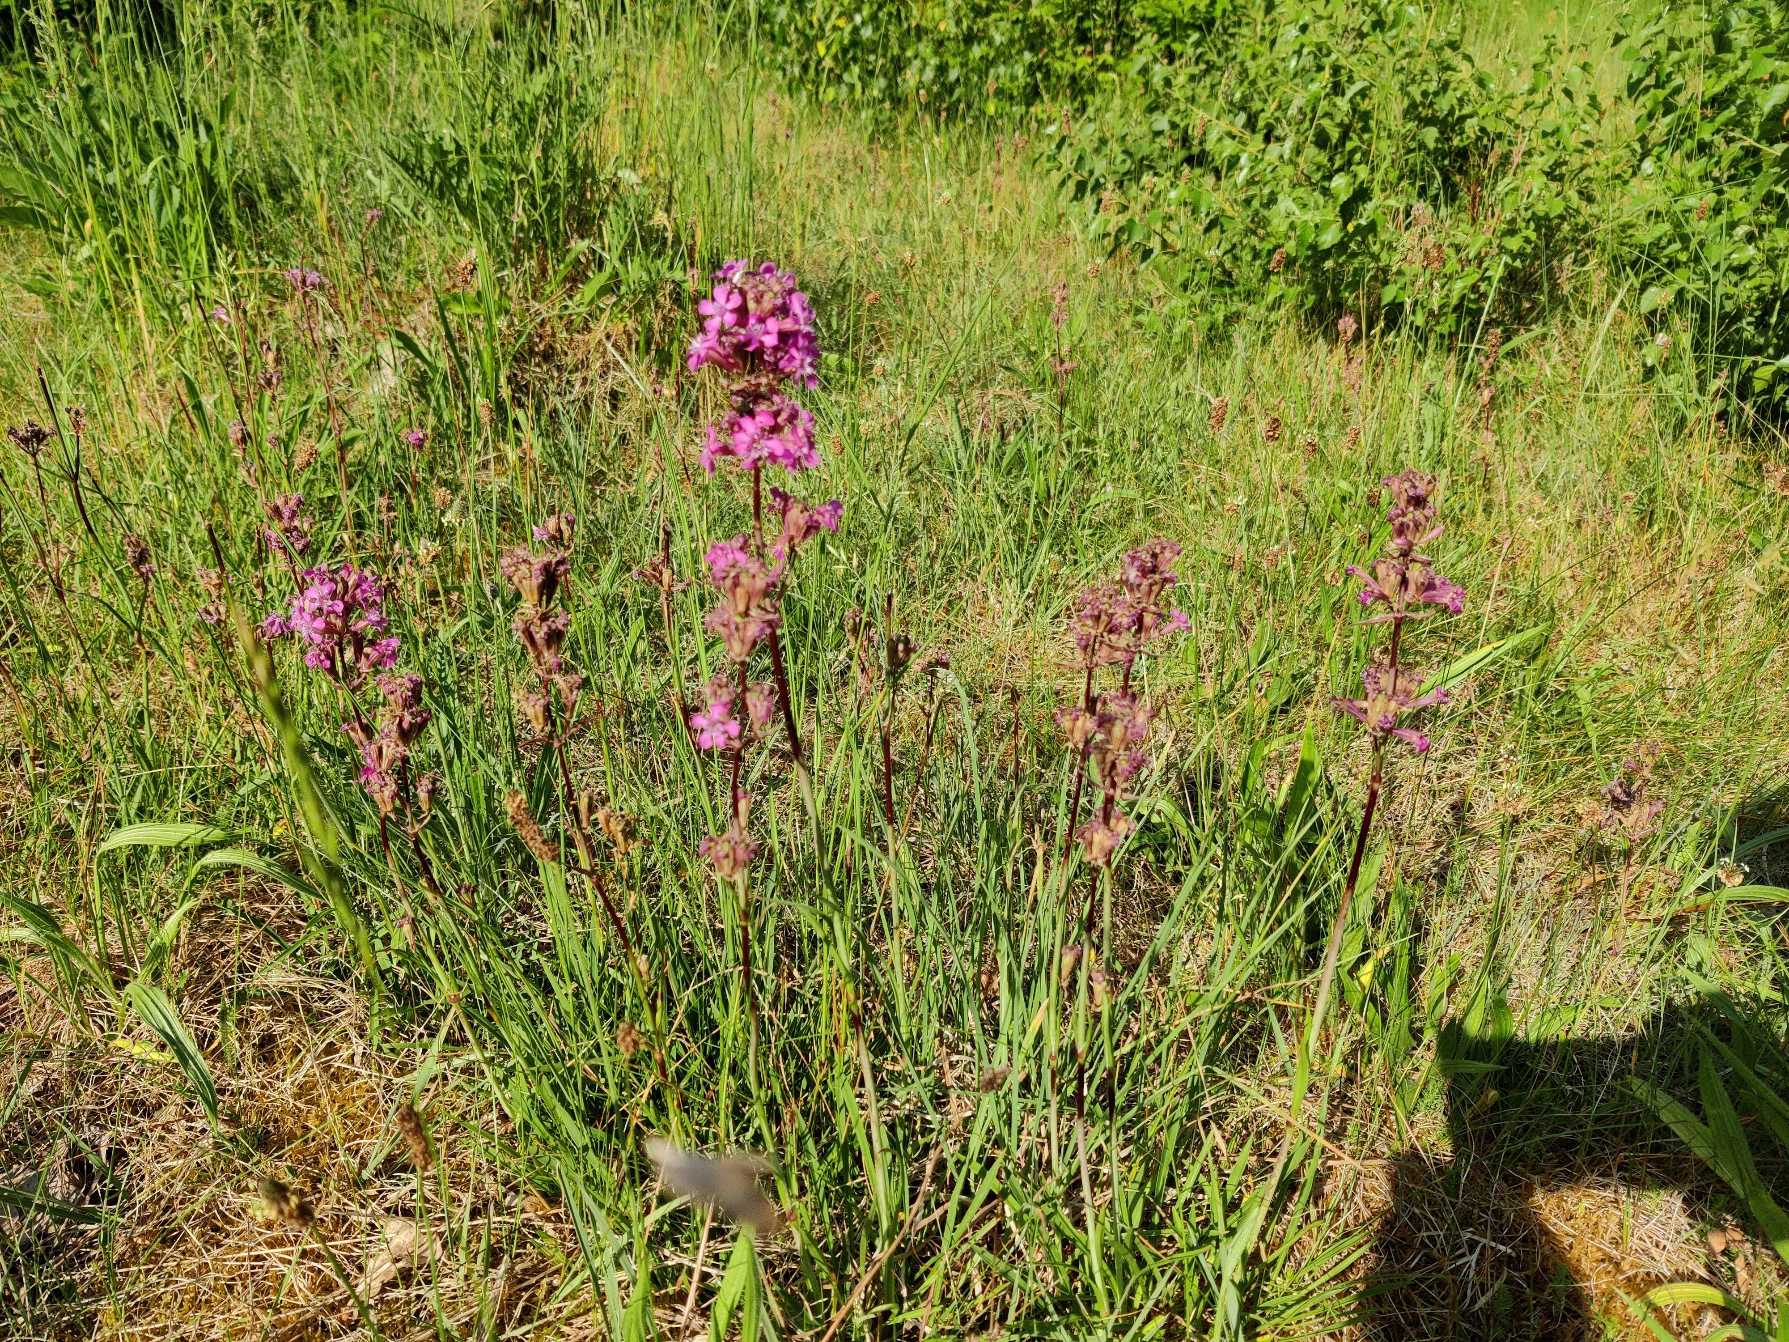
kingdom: Plantae
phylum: Tracheophyta
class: Magnoliopsida
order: Caryophyllales
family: Caryophyllaceae
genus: Viscaria
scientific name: Viscaria vulgaris
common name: Tjærenellike
